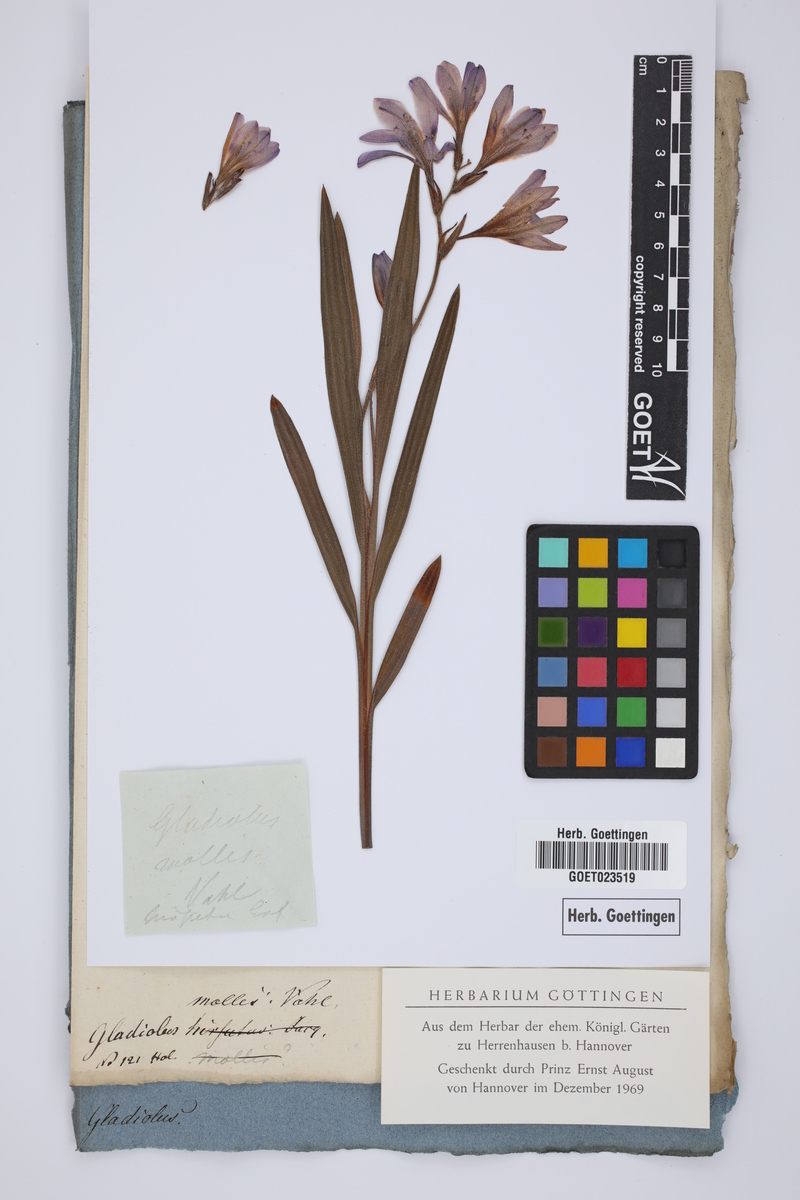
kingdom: Plantae
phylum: Tracheophyta
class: Liliopsida
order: Asparagales
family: Iridaceae
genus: Babiana
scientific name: Babiana hirsuta
